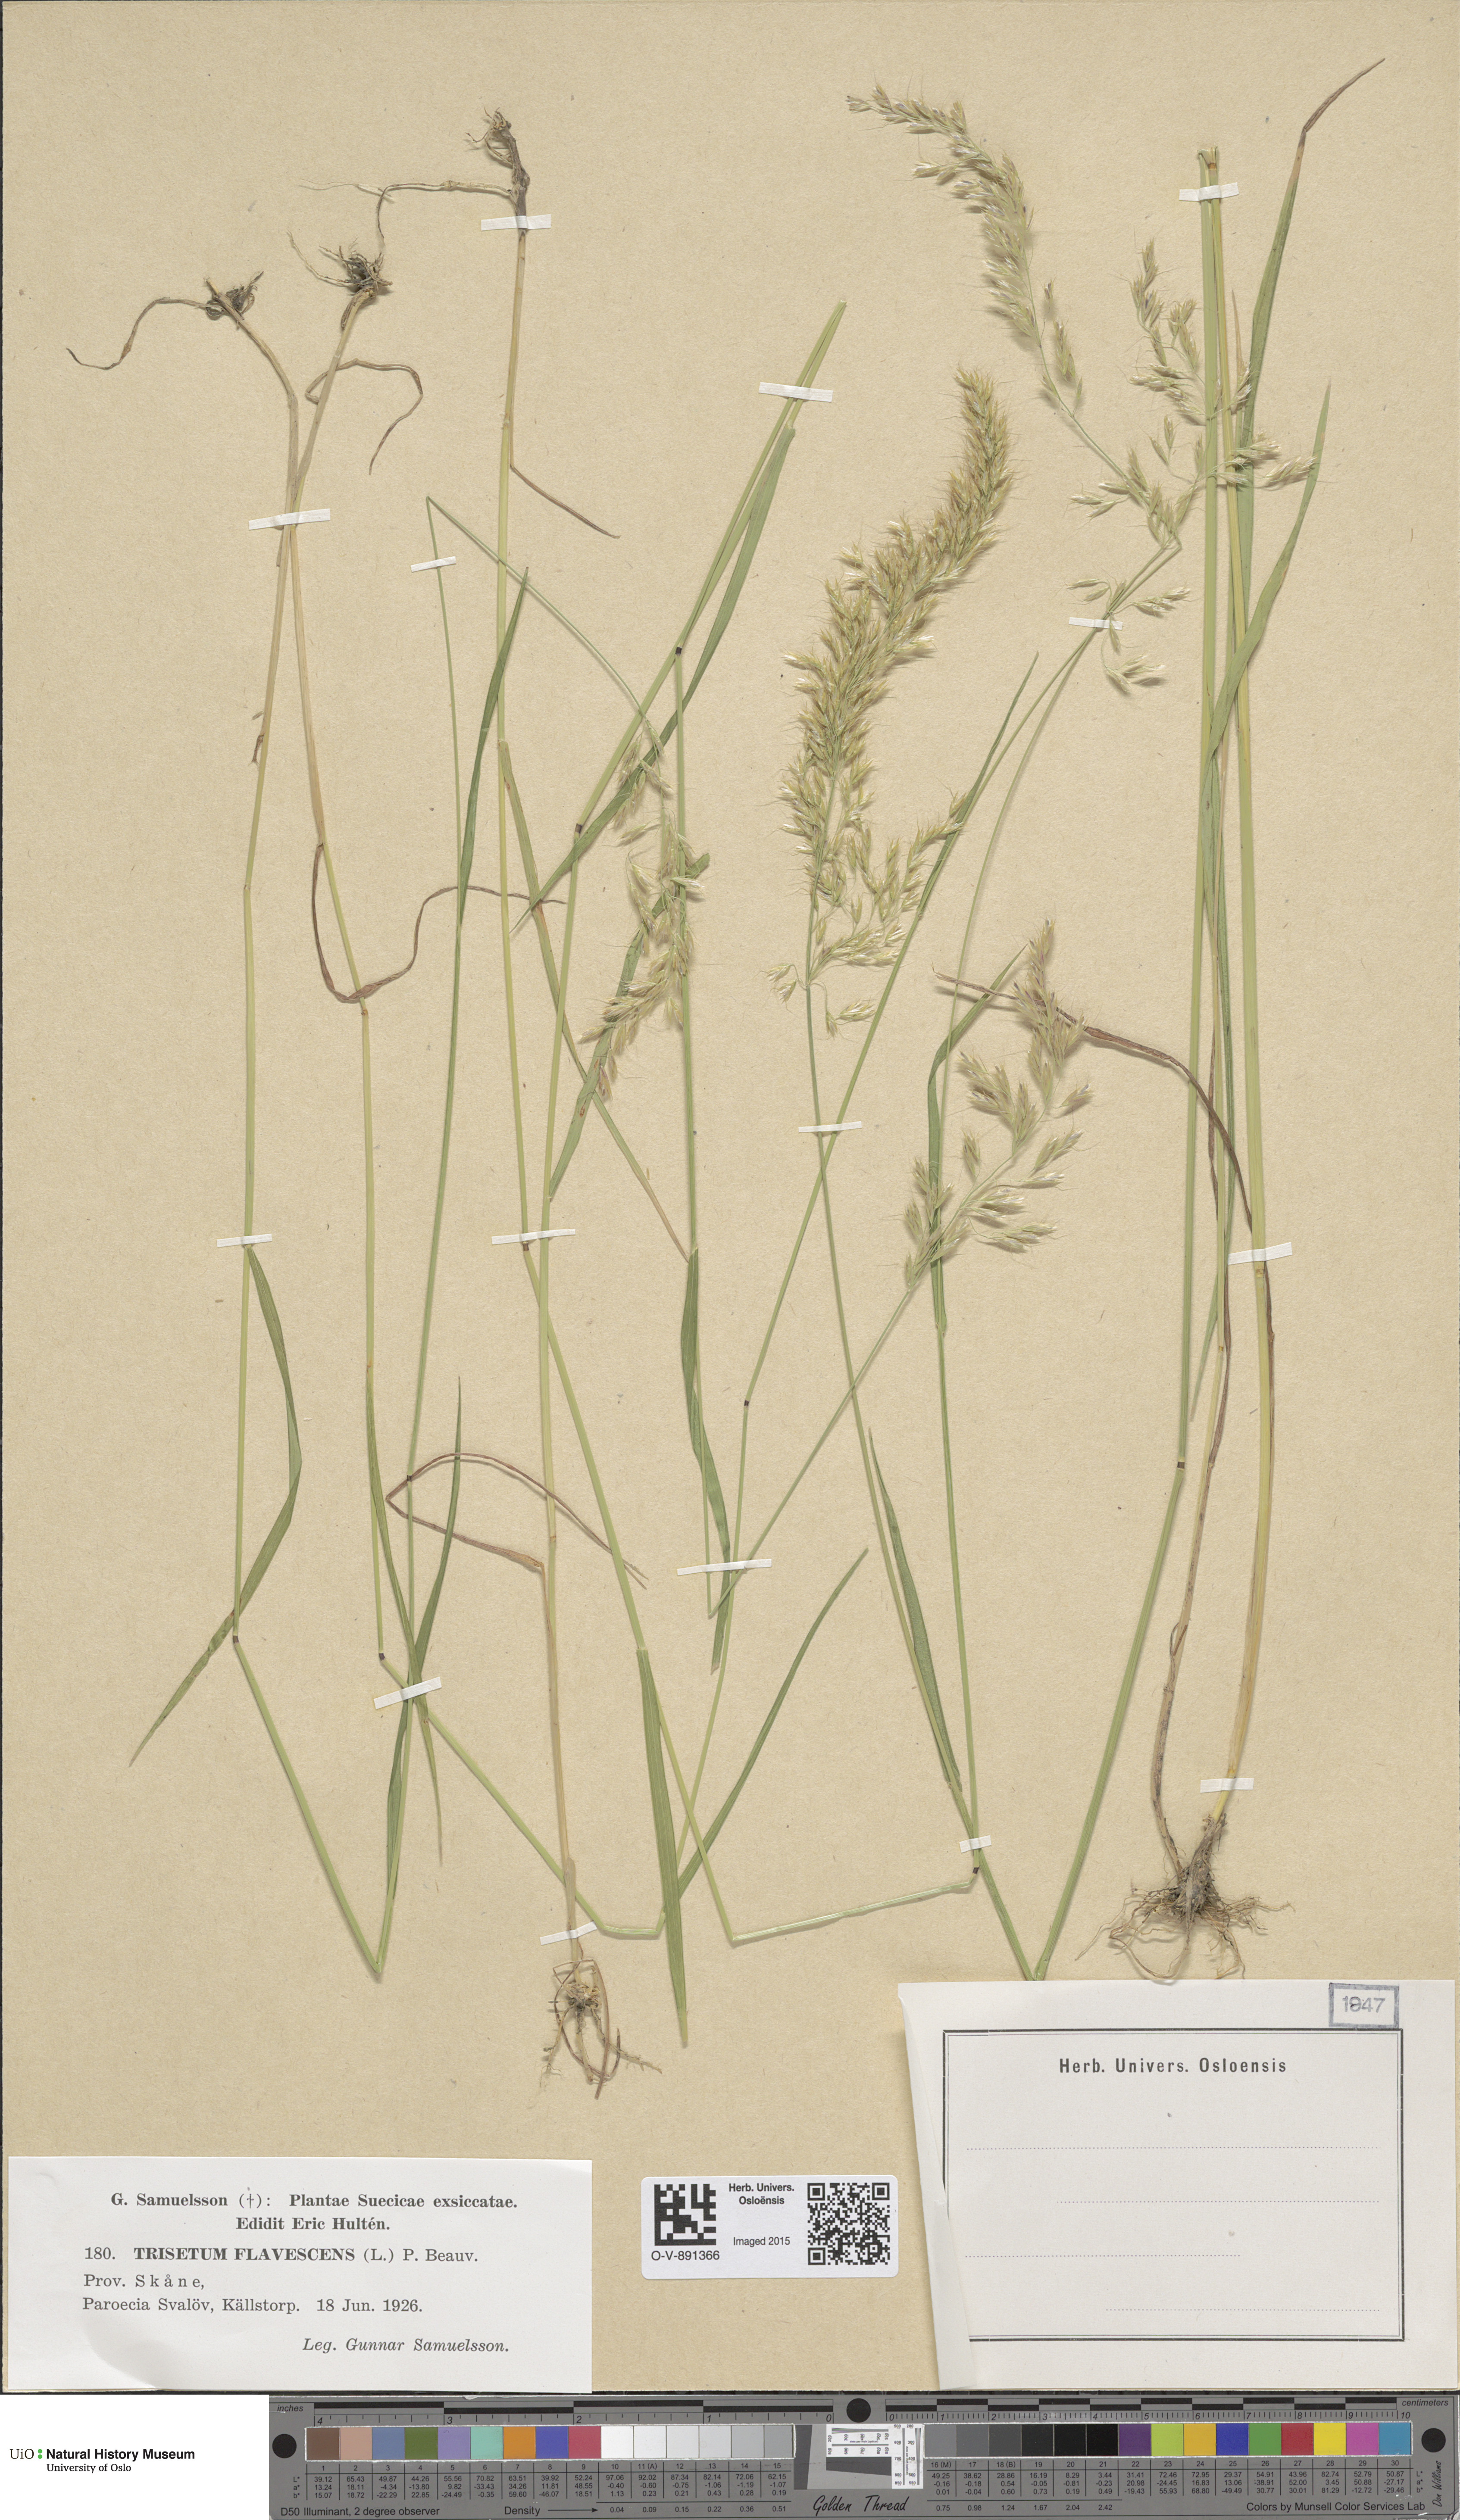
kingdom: Plantae
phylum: Tracheophyta
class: Liliopsida
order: Poales
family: Poaceae
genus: Trisetum
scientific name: Trisetum flavescens
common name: Yellow oat-grass
